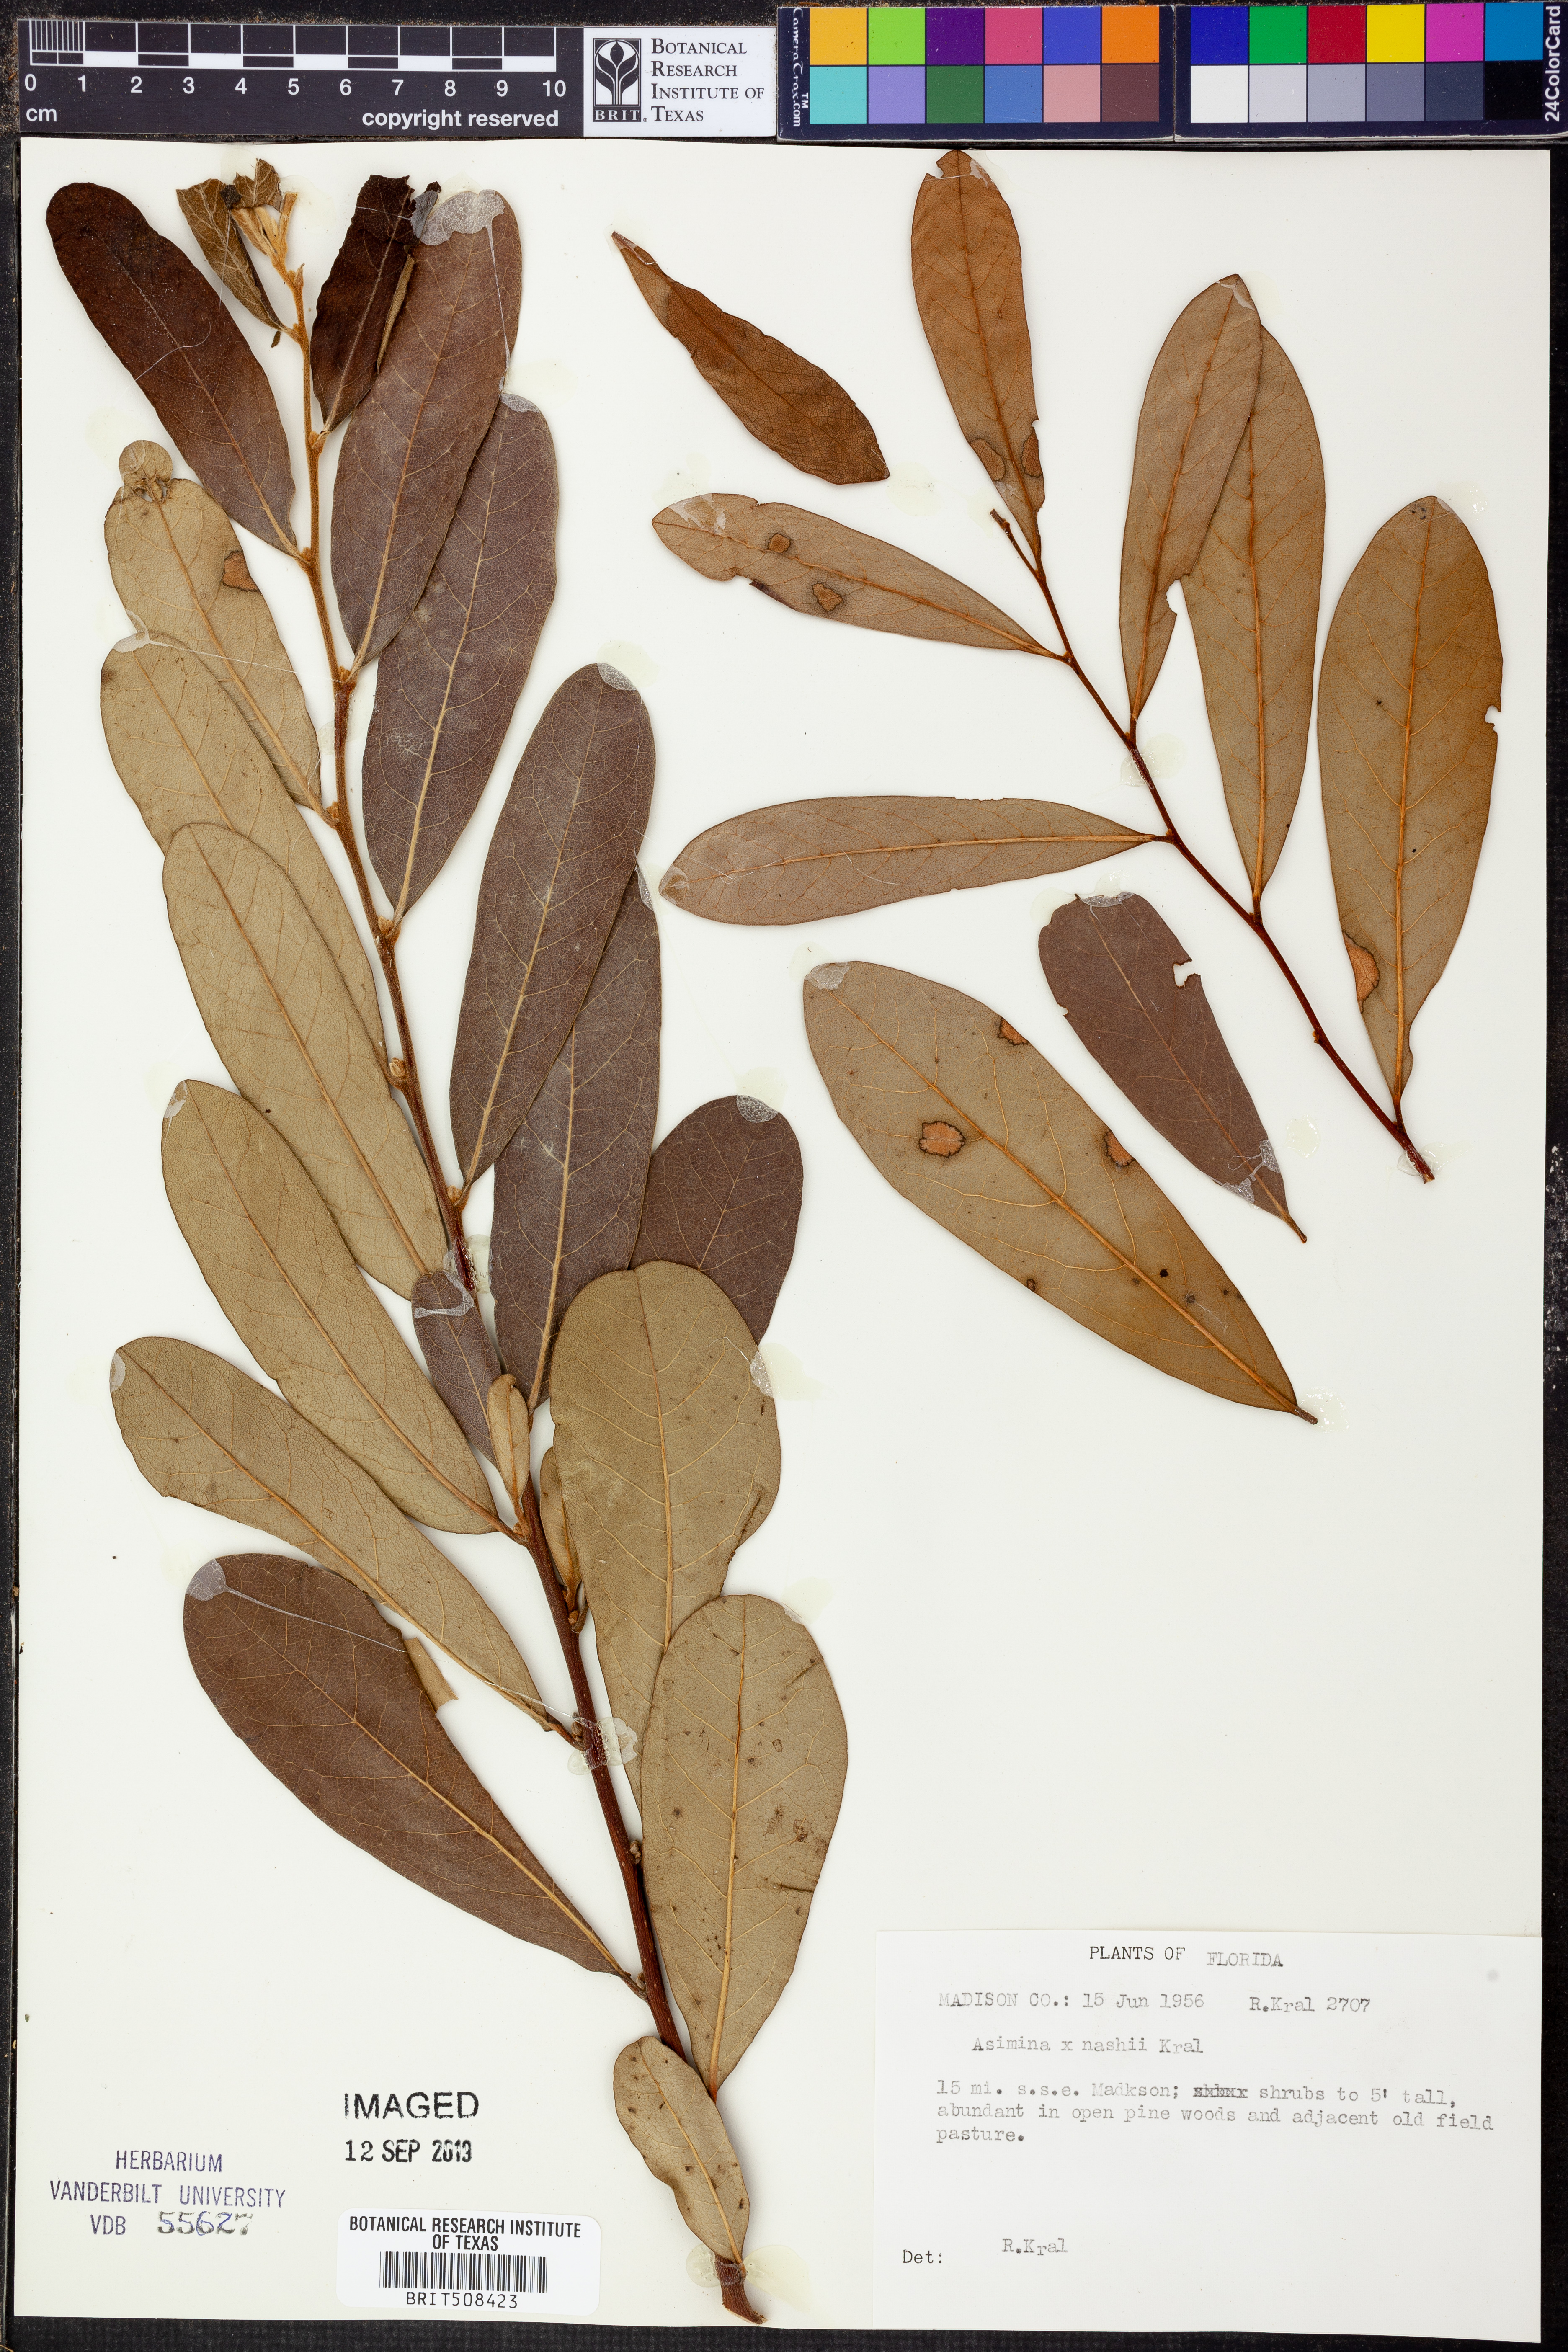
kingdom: Plantae
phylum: Tracheophyta
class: Magnoliopsida
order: Magnoliales
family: Annonaceae
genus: Asimina
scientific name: Asimina
